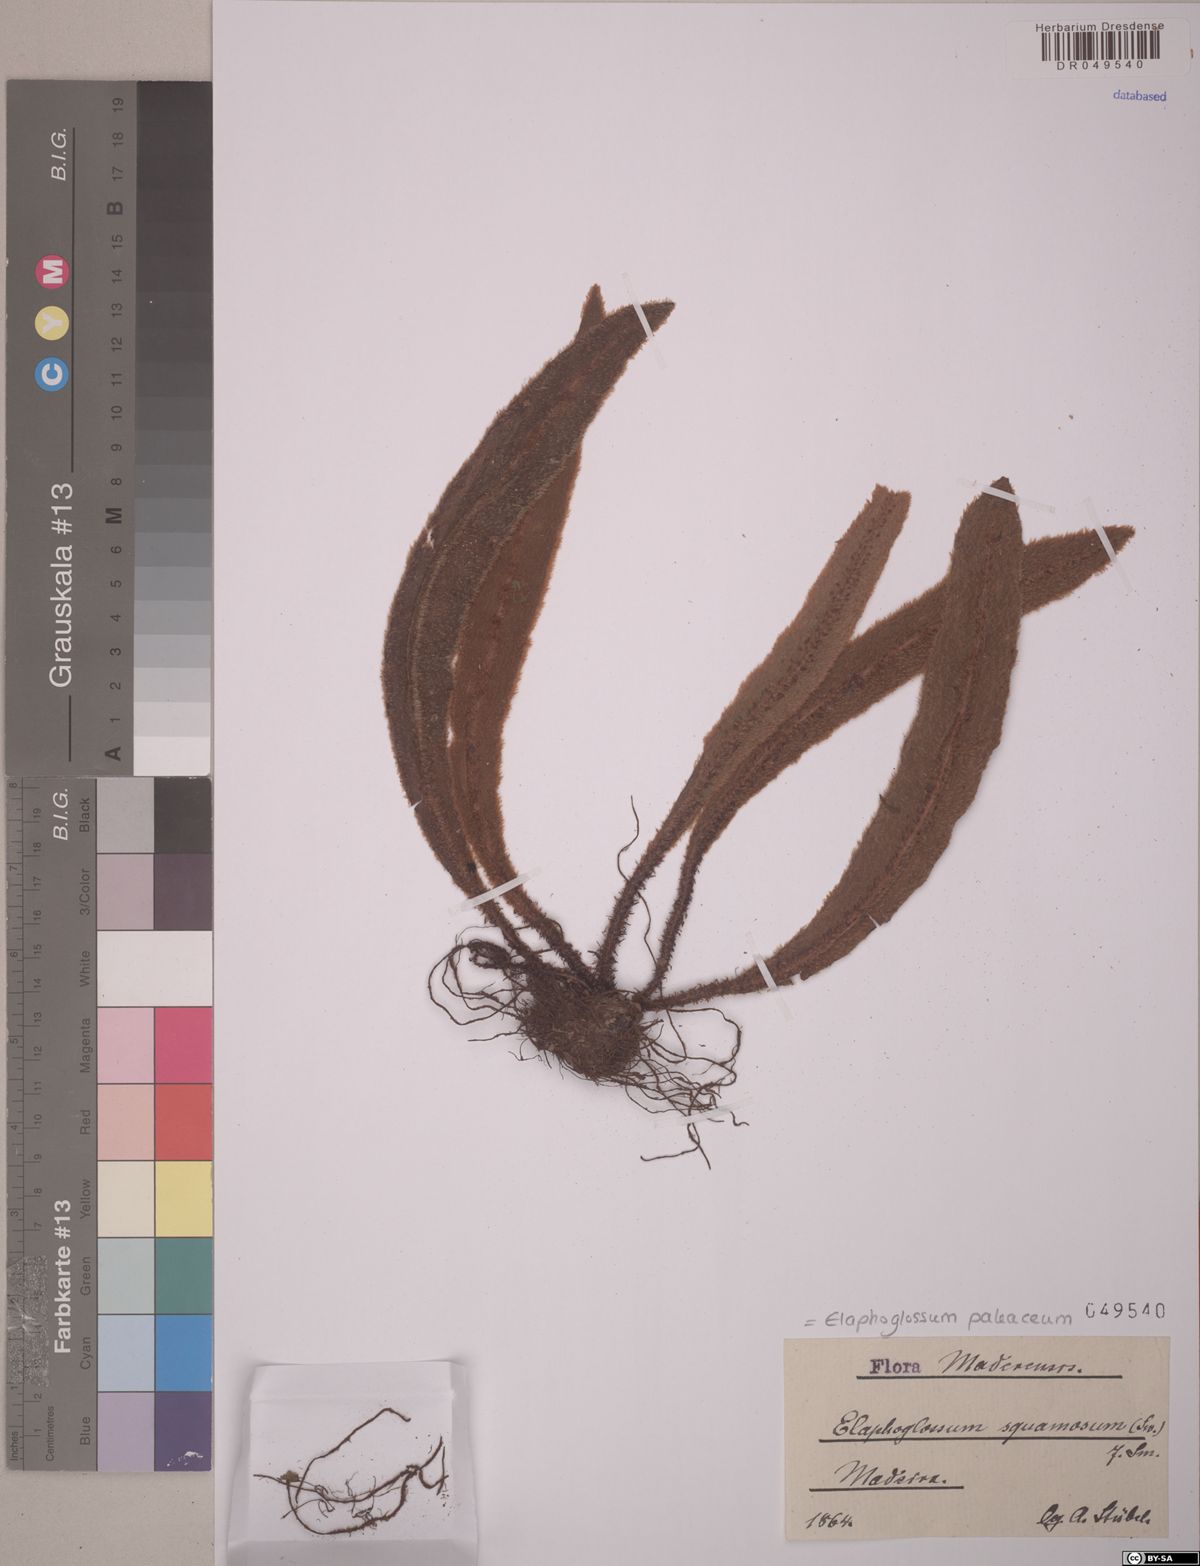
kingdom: Plantae
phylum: Tracheophyta
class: Polypodiopsida
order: Polypodiales
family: Dryopteridaceae
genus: Elaphoglossum
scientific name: Elaphoglossum paleaceum
